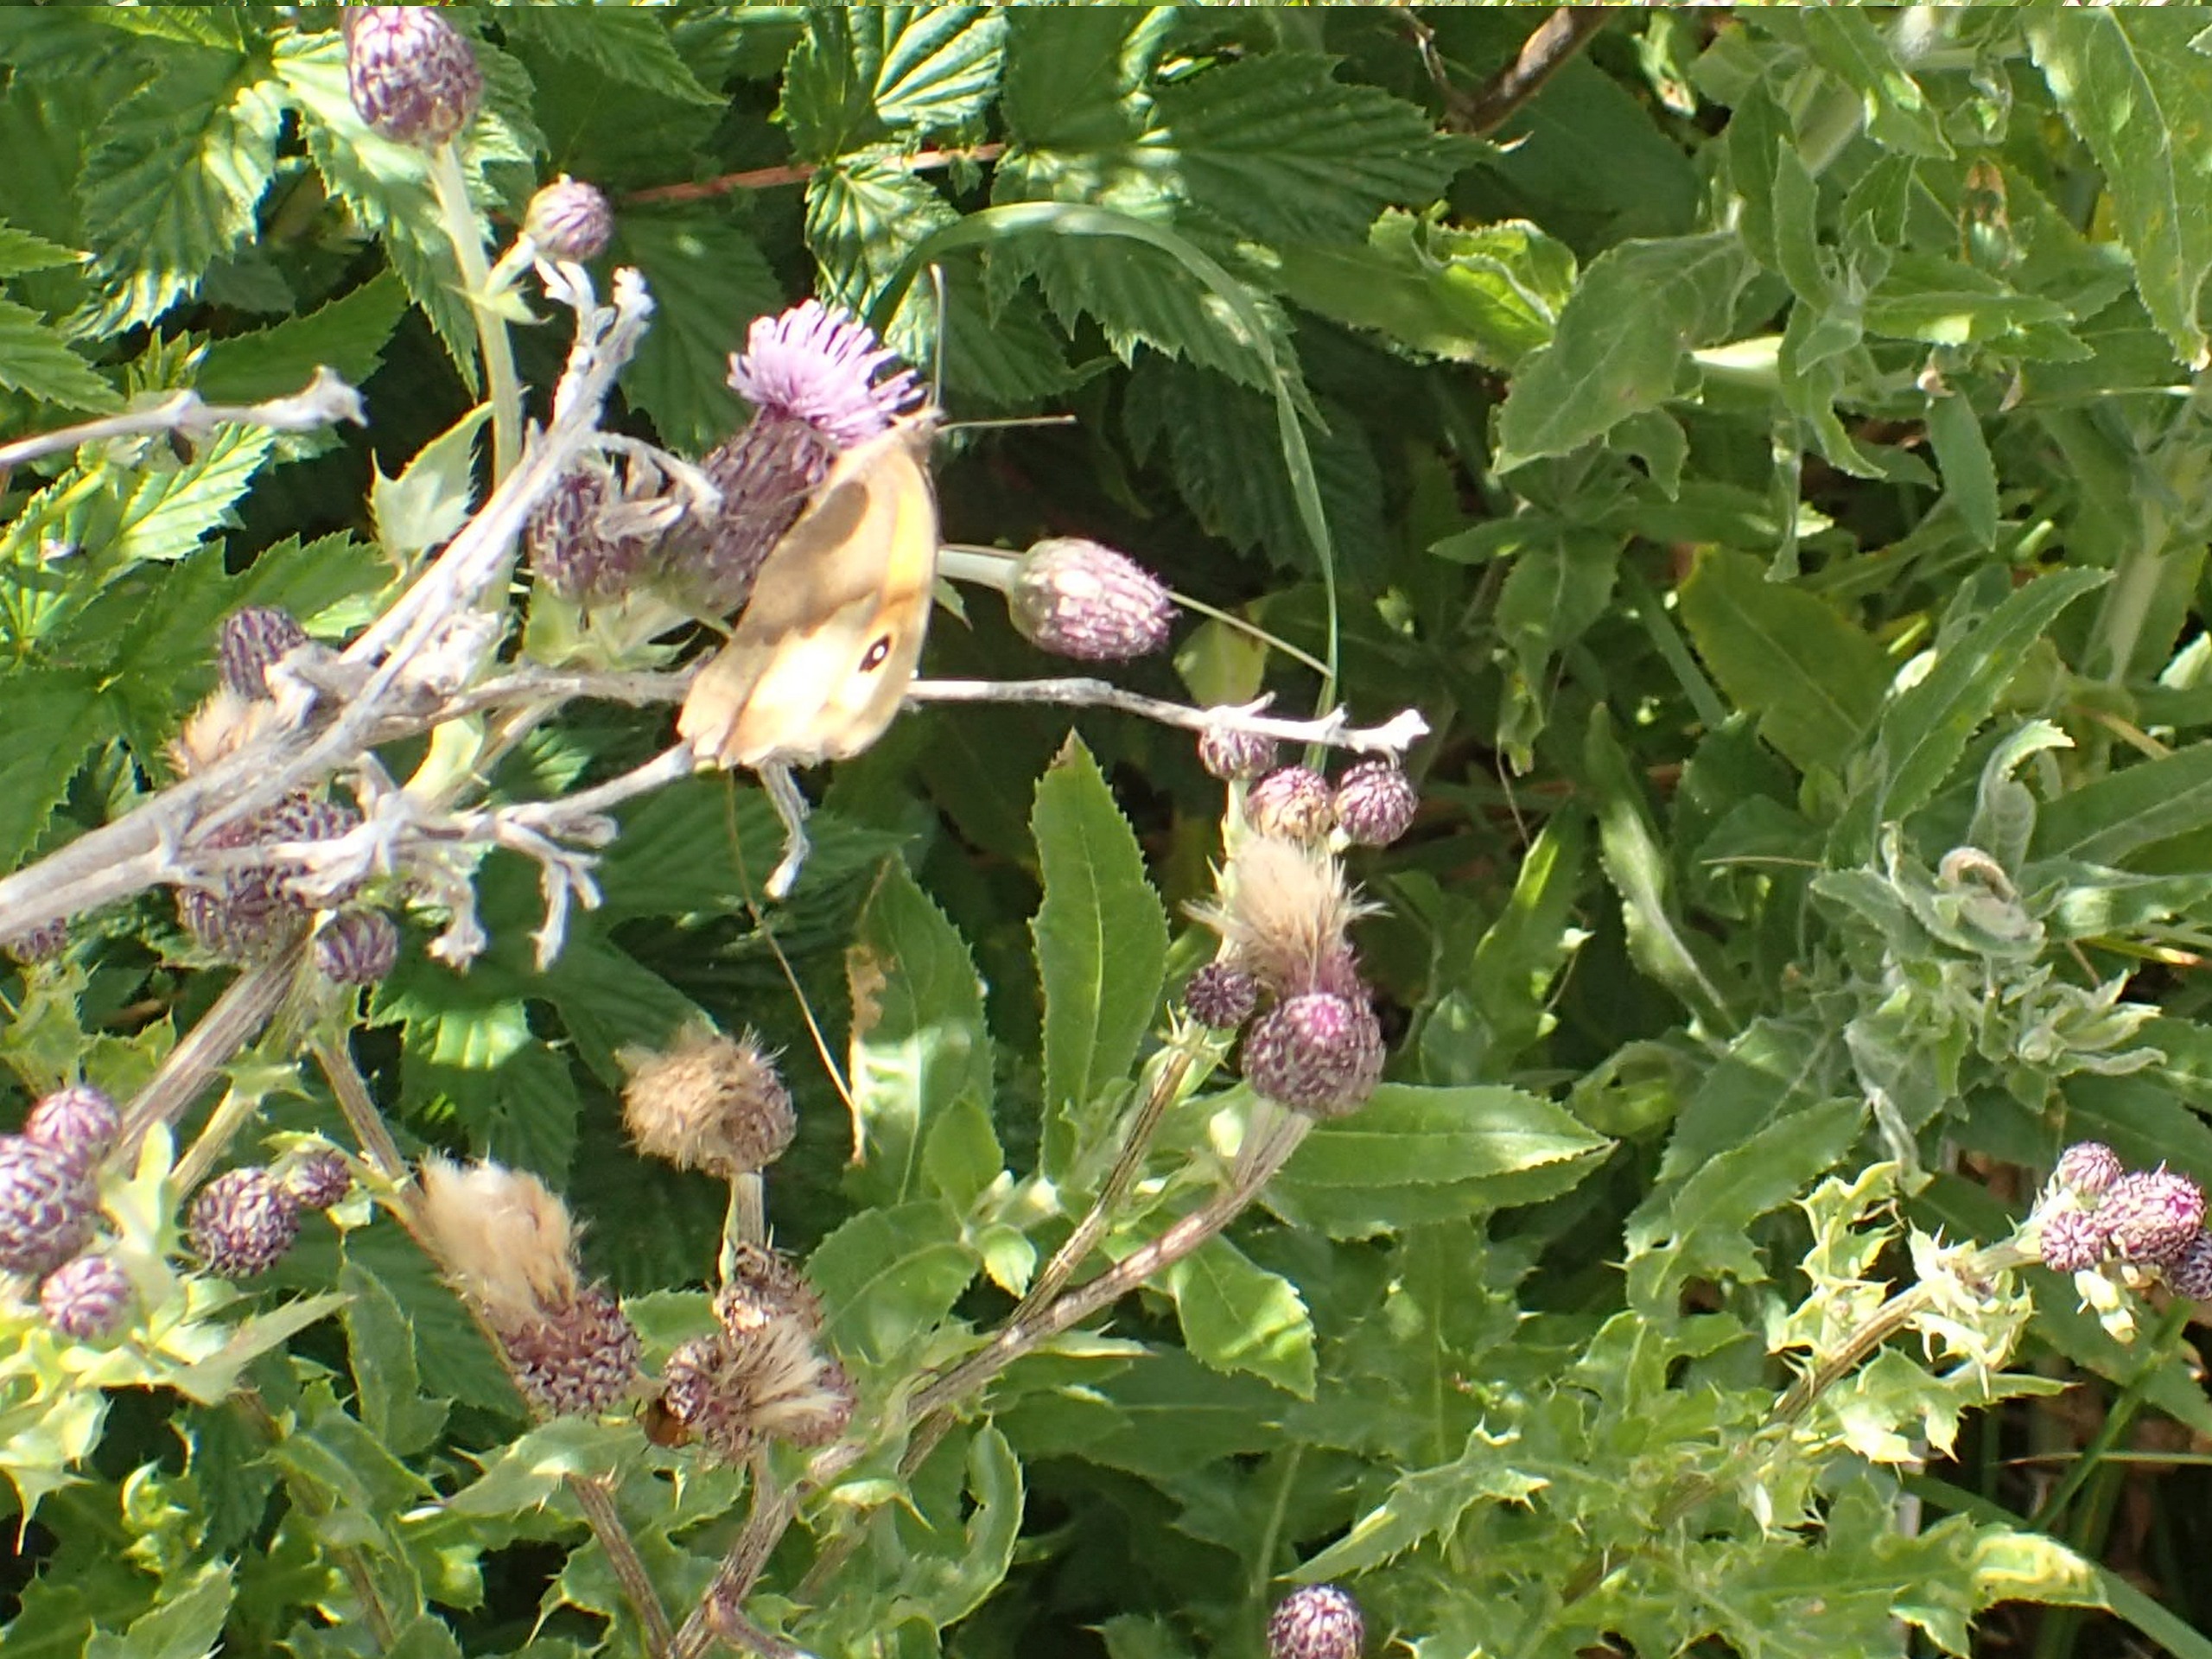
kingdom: Animalia
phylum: Arthropoda
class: Insecta
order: Lepidoptera
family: Nymphalidae
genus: Maniola
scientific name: Maniola jurtina
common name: Græsrandøje
